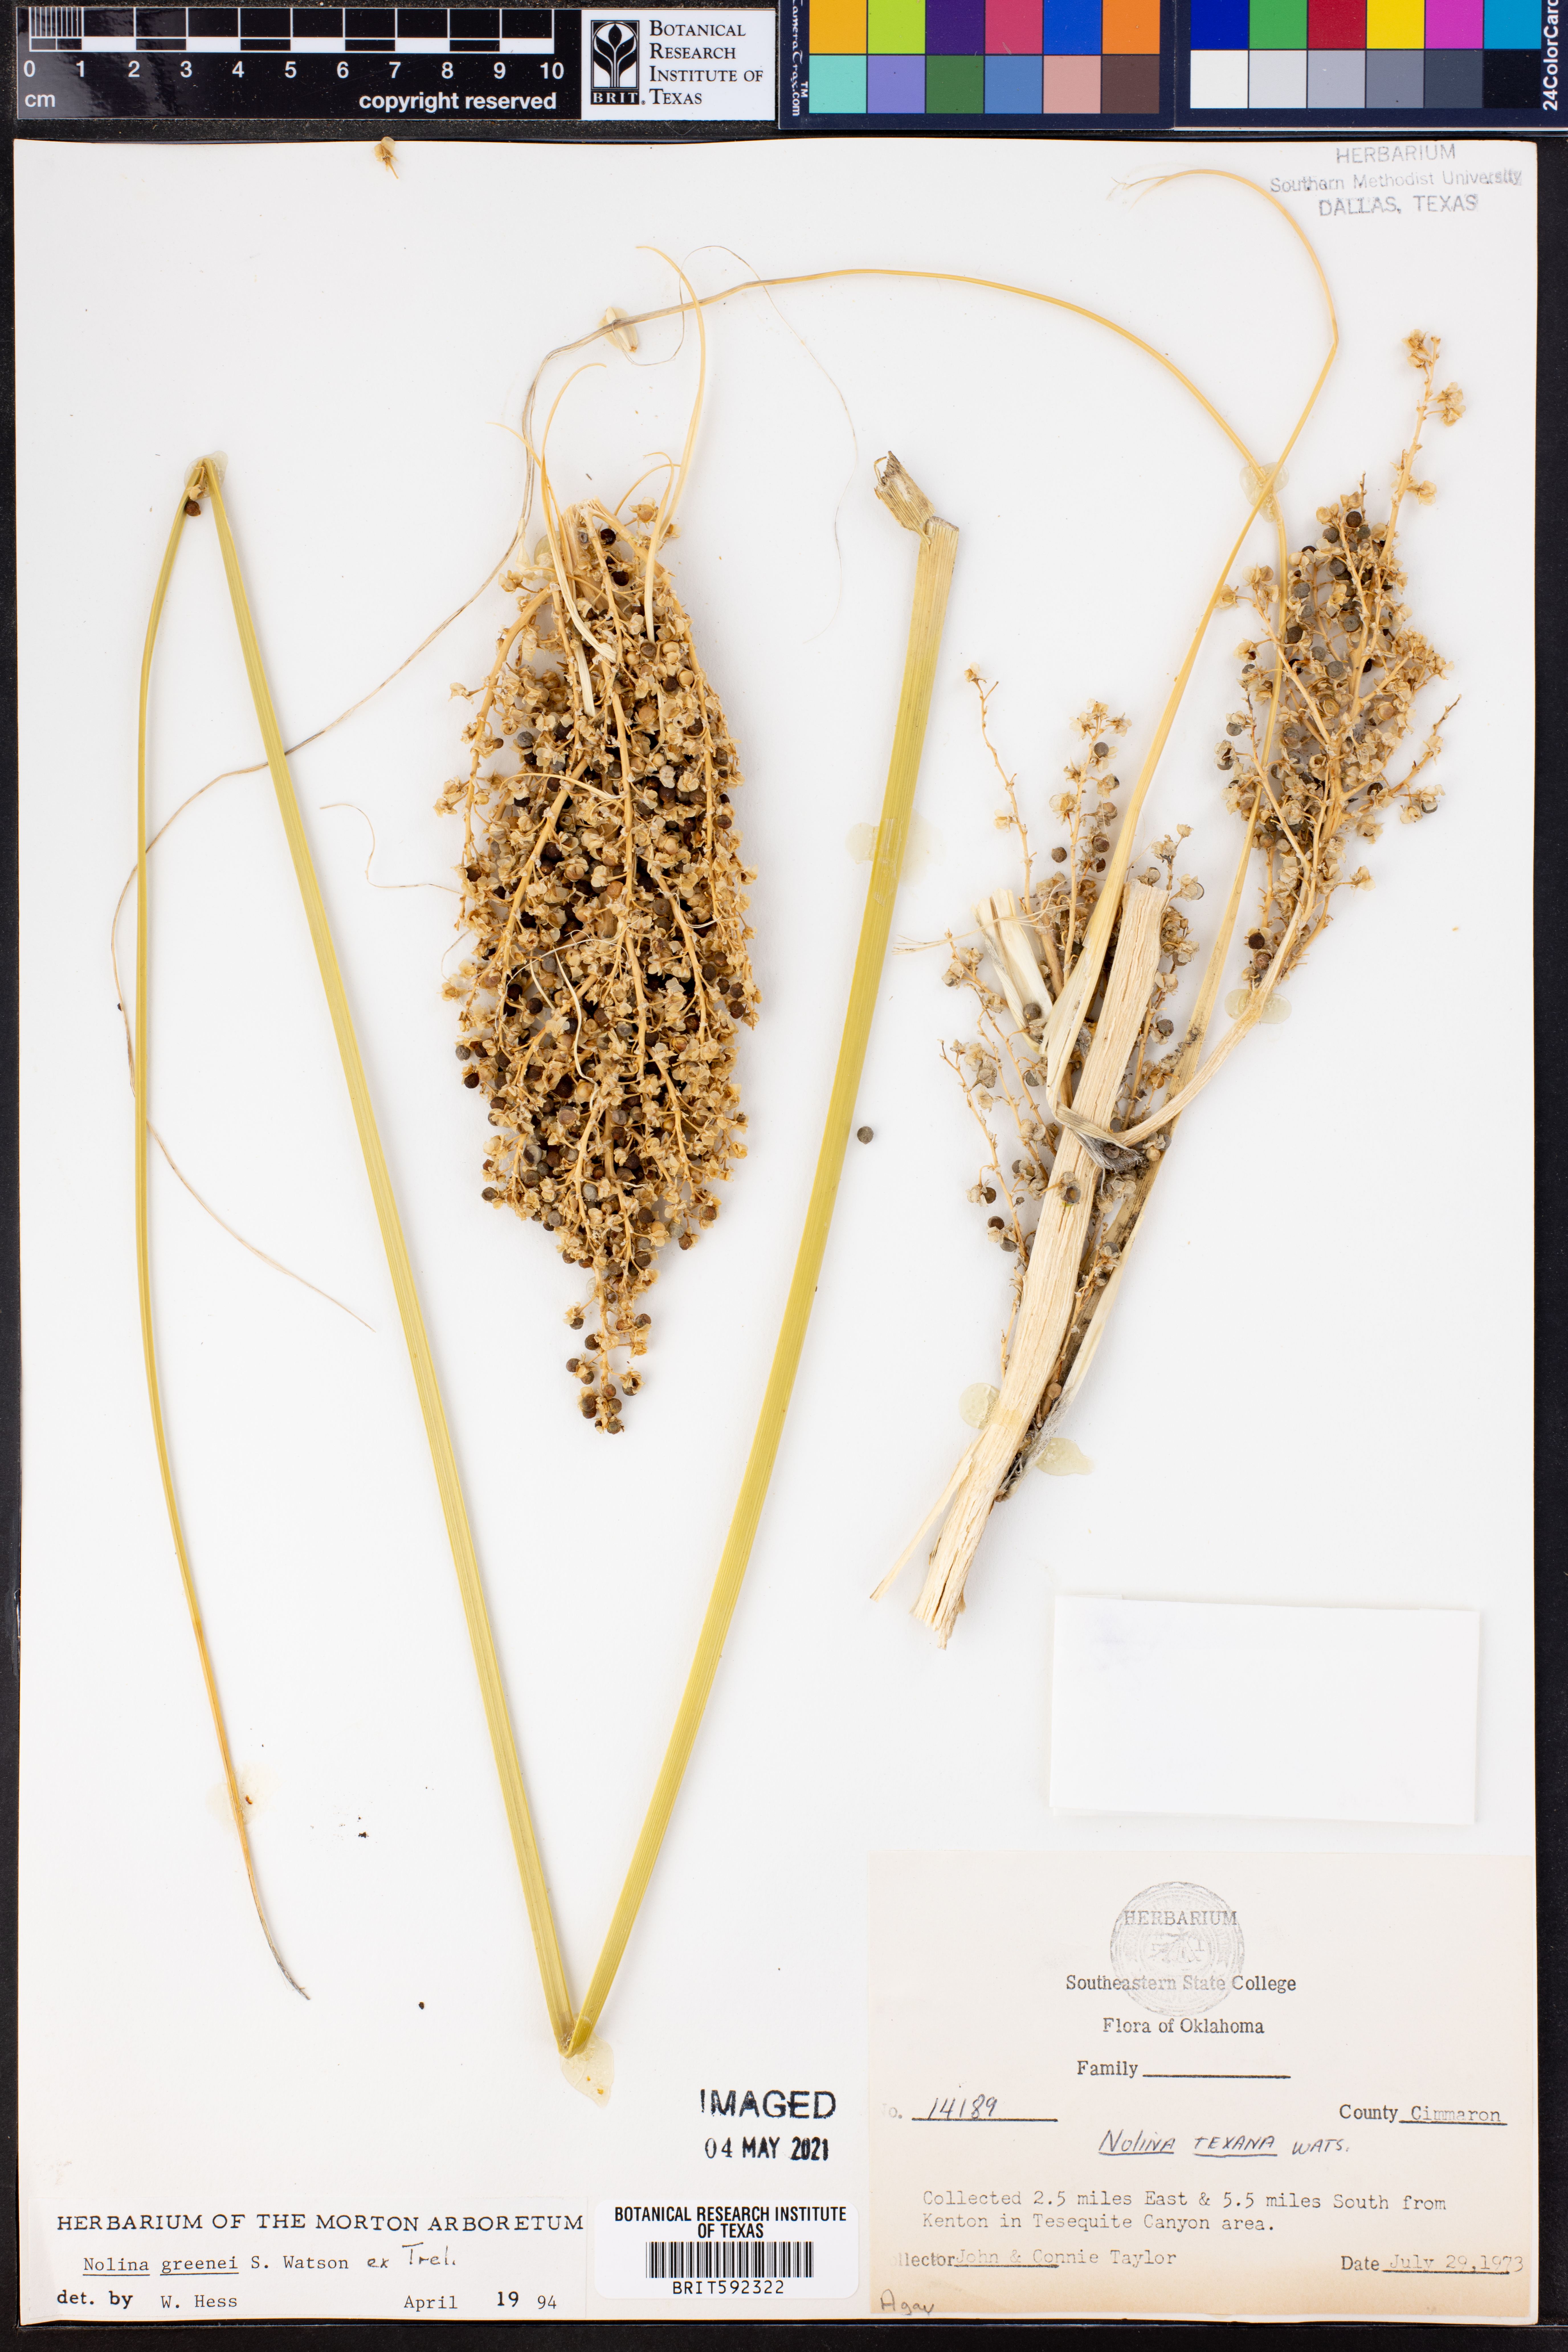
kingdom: Plantae
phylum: Tracheophyta
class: Liliopsida
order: Asparagales
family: Asparagaceae
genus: Nolina
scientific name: Nolina greenei
